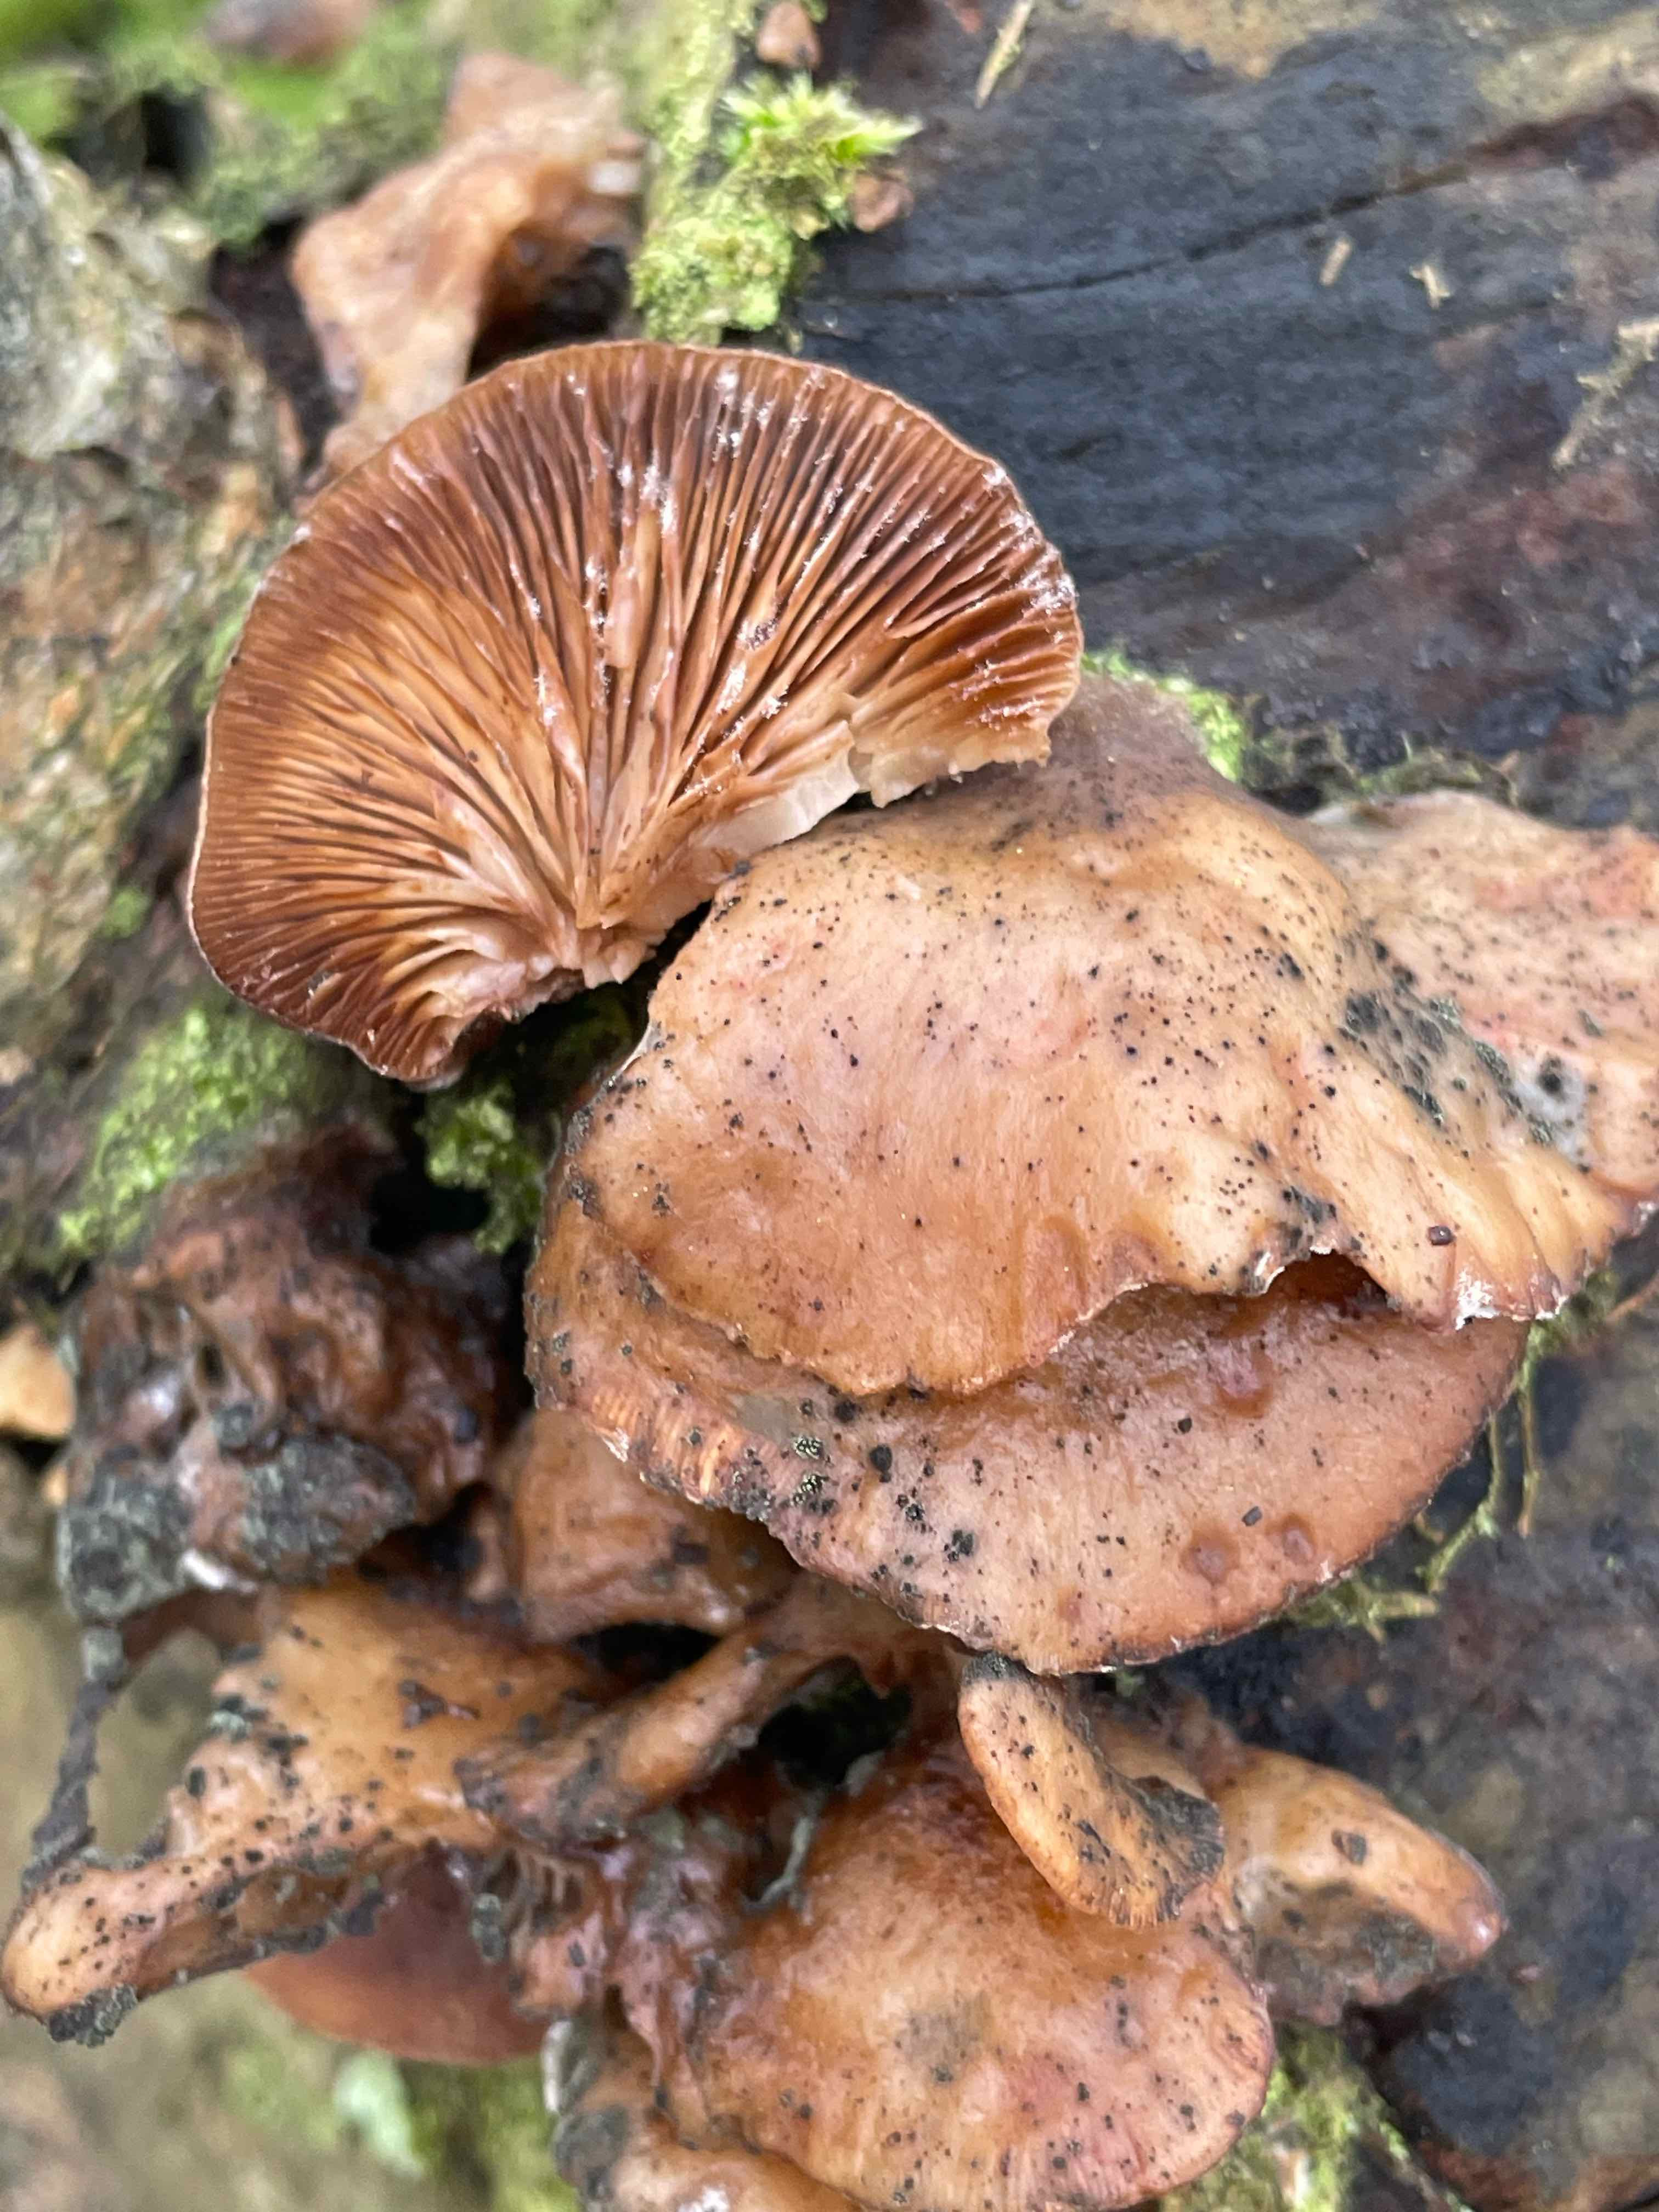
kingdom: Fungi
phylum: Basidiomycota
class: Agaricomycetes
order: Agaricales
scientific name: Agaricales
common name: champignonordenen
